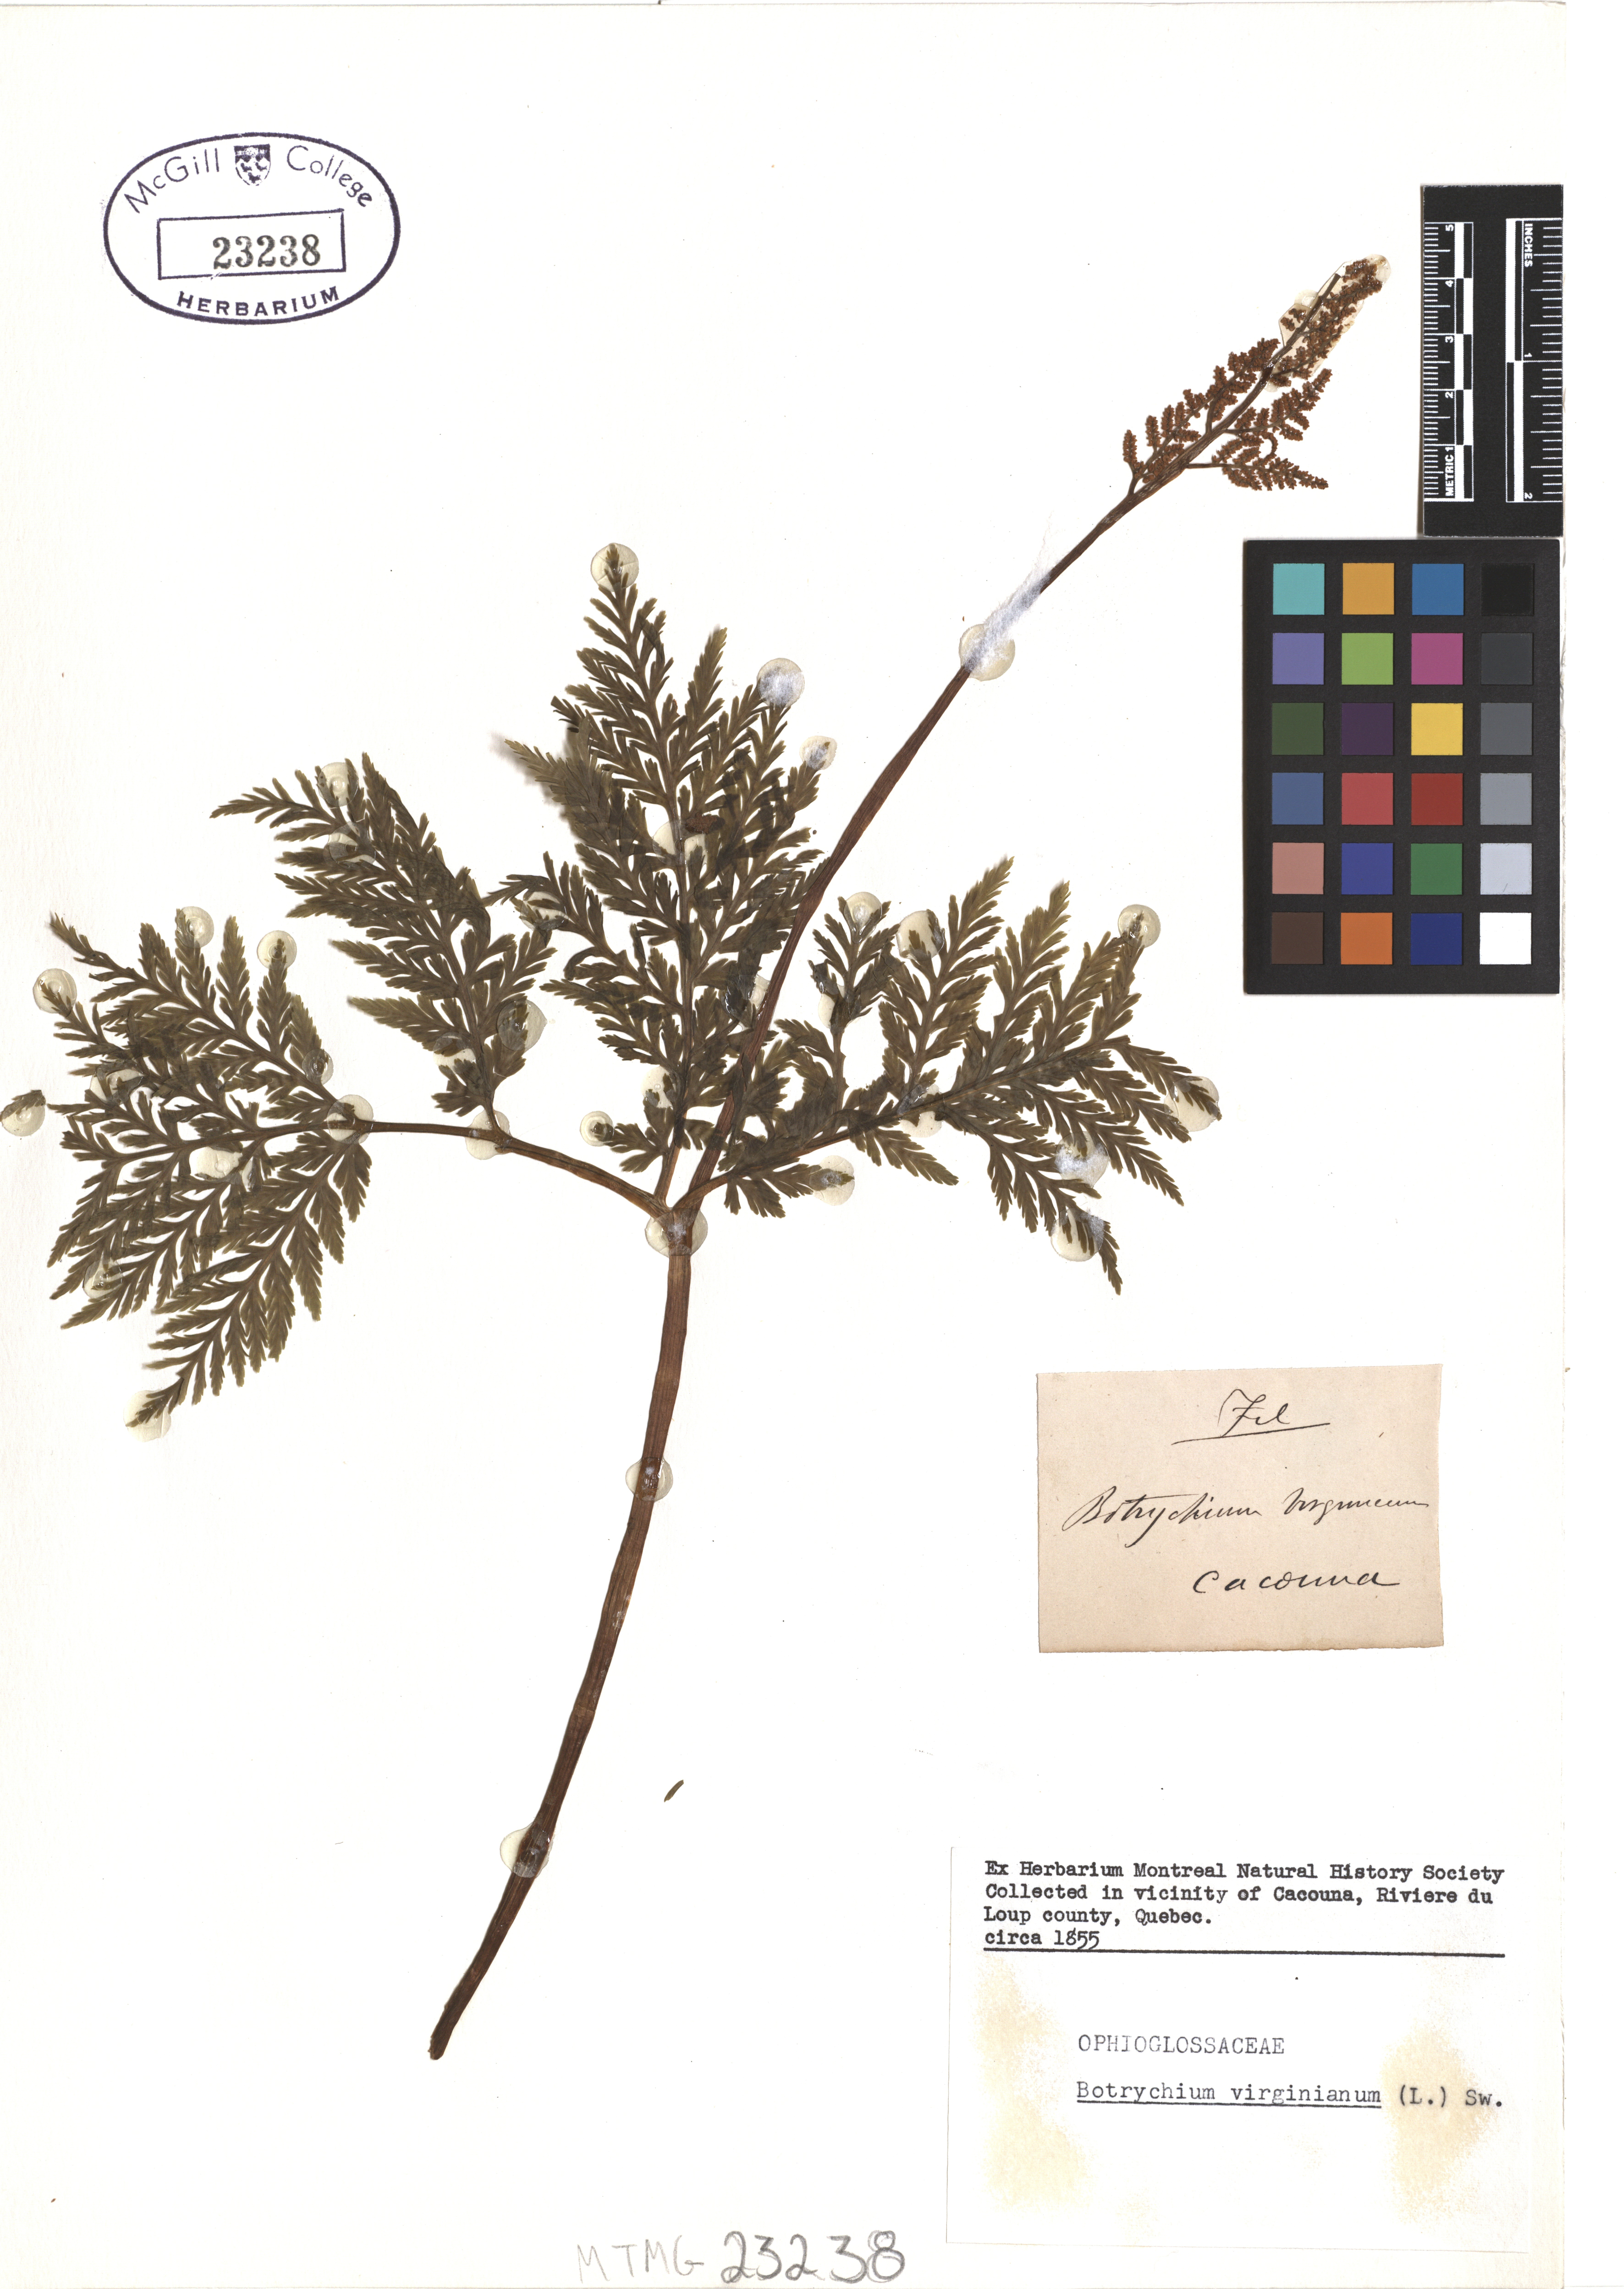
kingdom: Plantae
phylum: Tracheophyta
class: Polypodiopsida
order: Ophioglossales
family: Ophioglossaceae
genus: Botrypus
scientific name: Botrypus virginianus
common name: Common grapefern
